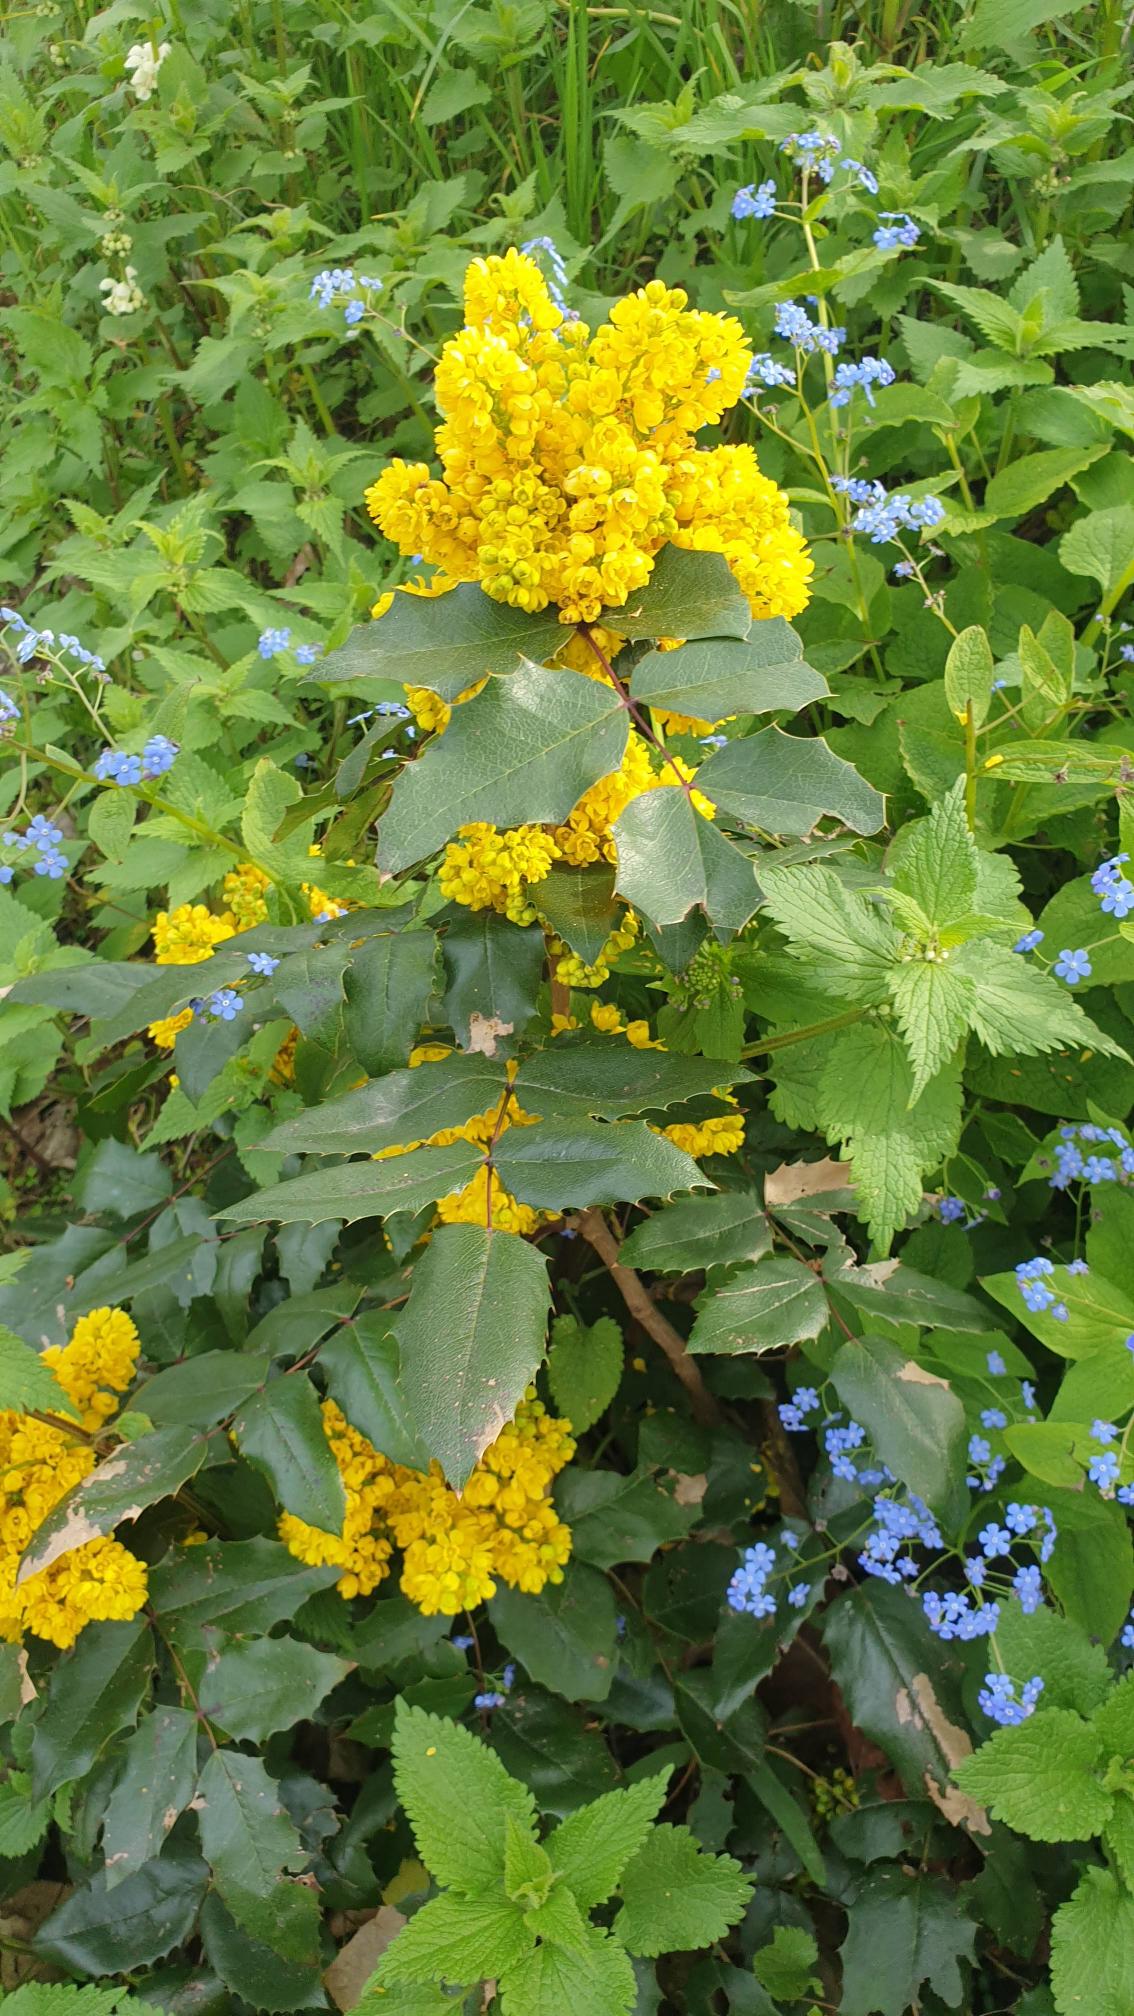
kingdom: Plantae
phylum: Tracheophyta
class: Magnoliopsida
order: Ranunculales
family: Berberidaceae
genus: Mahonia
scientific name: Mahonia aquifolium
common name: Almindelig mahonie
